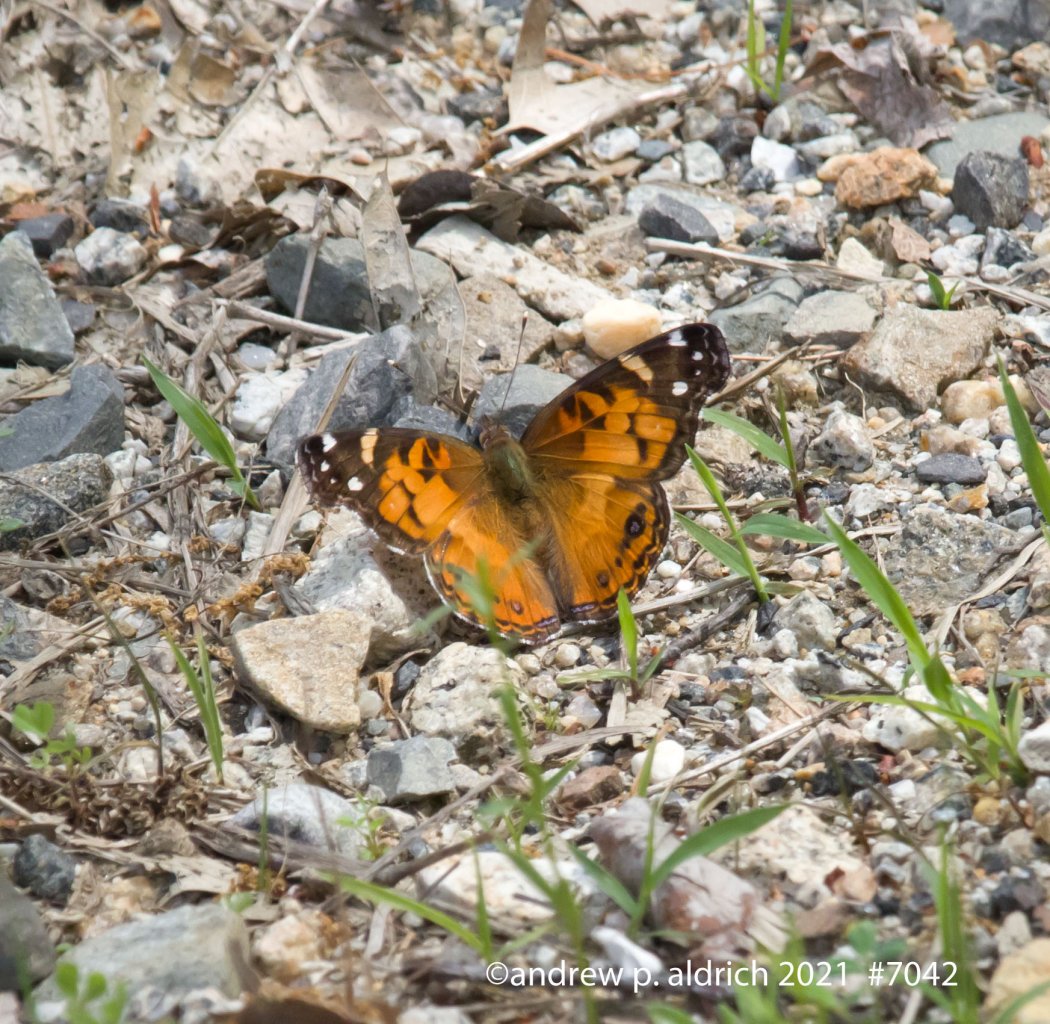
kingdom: Animalia
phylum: Arthropoda
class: Insecta
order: Lepidoptera
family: Nymphalidae
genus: Vanessa
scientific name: Vanessa virginiensis
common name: American Lady
